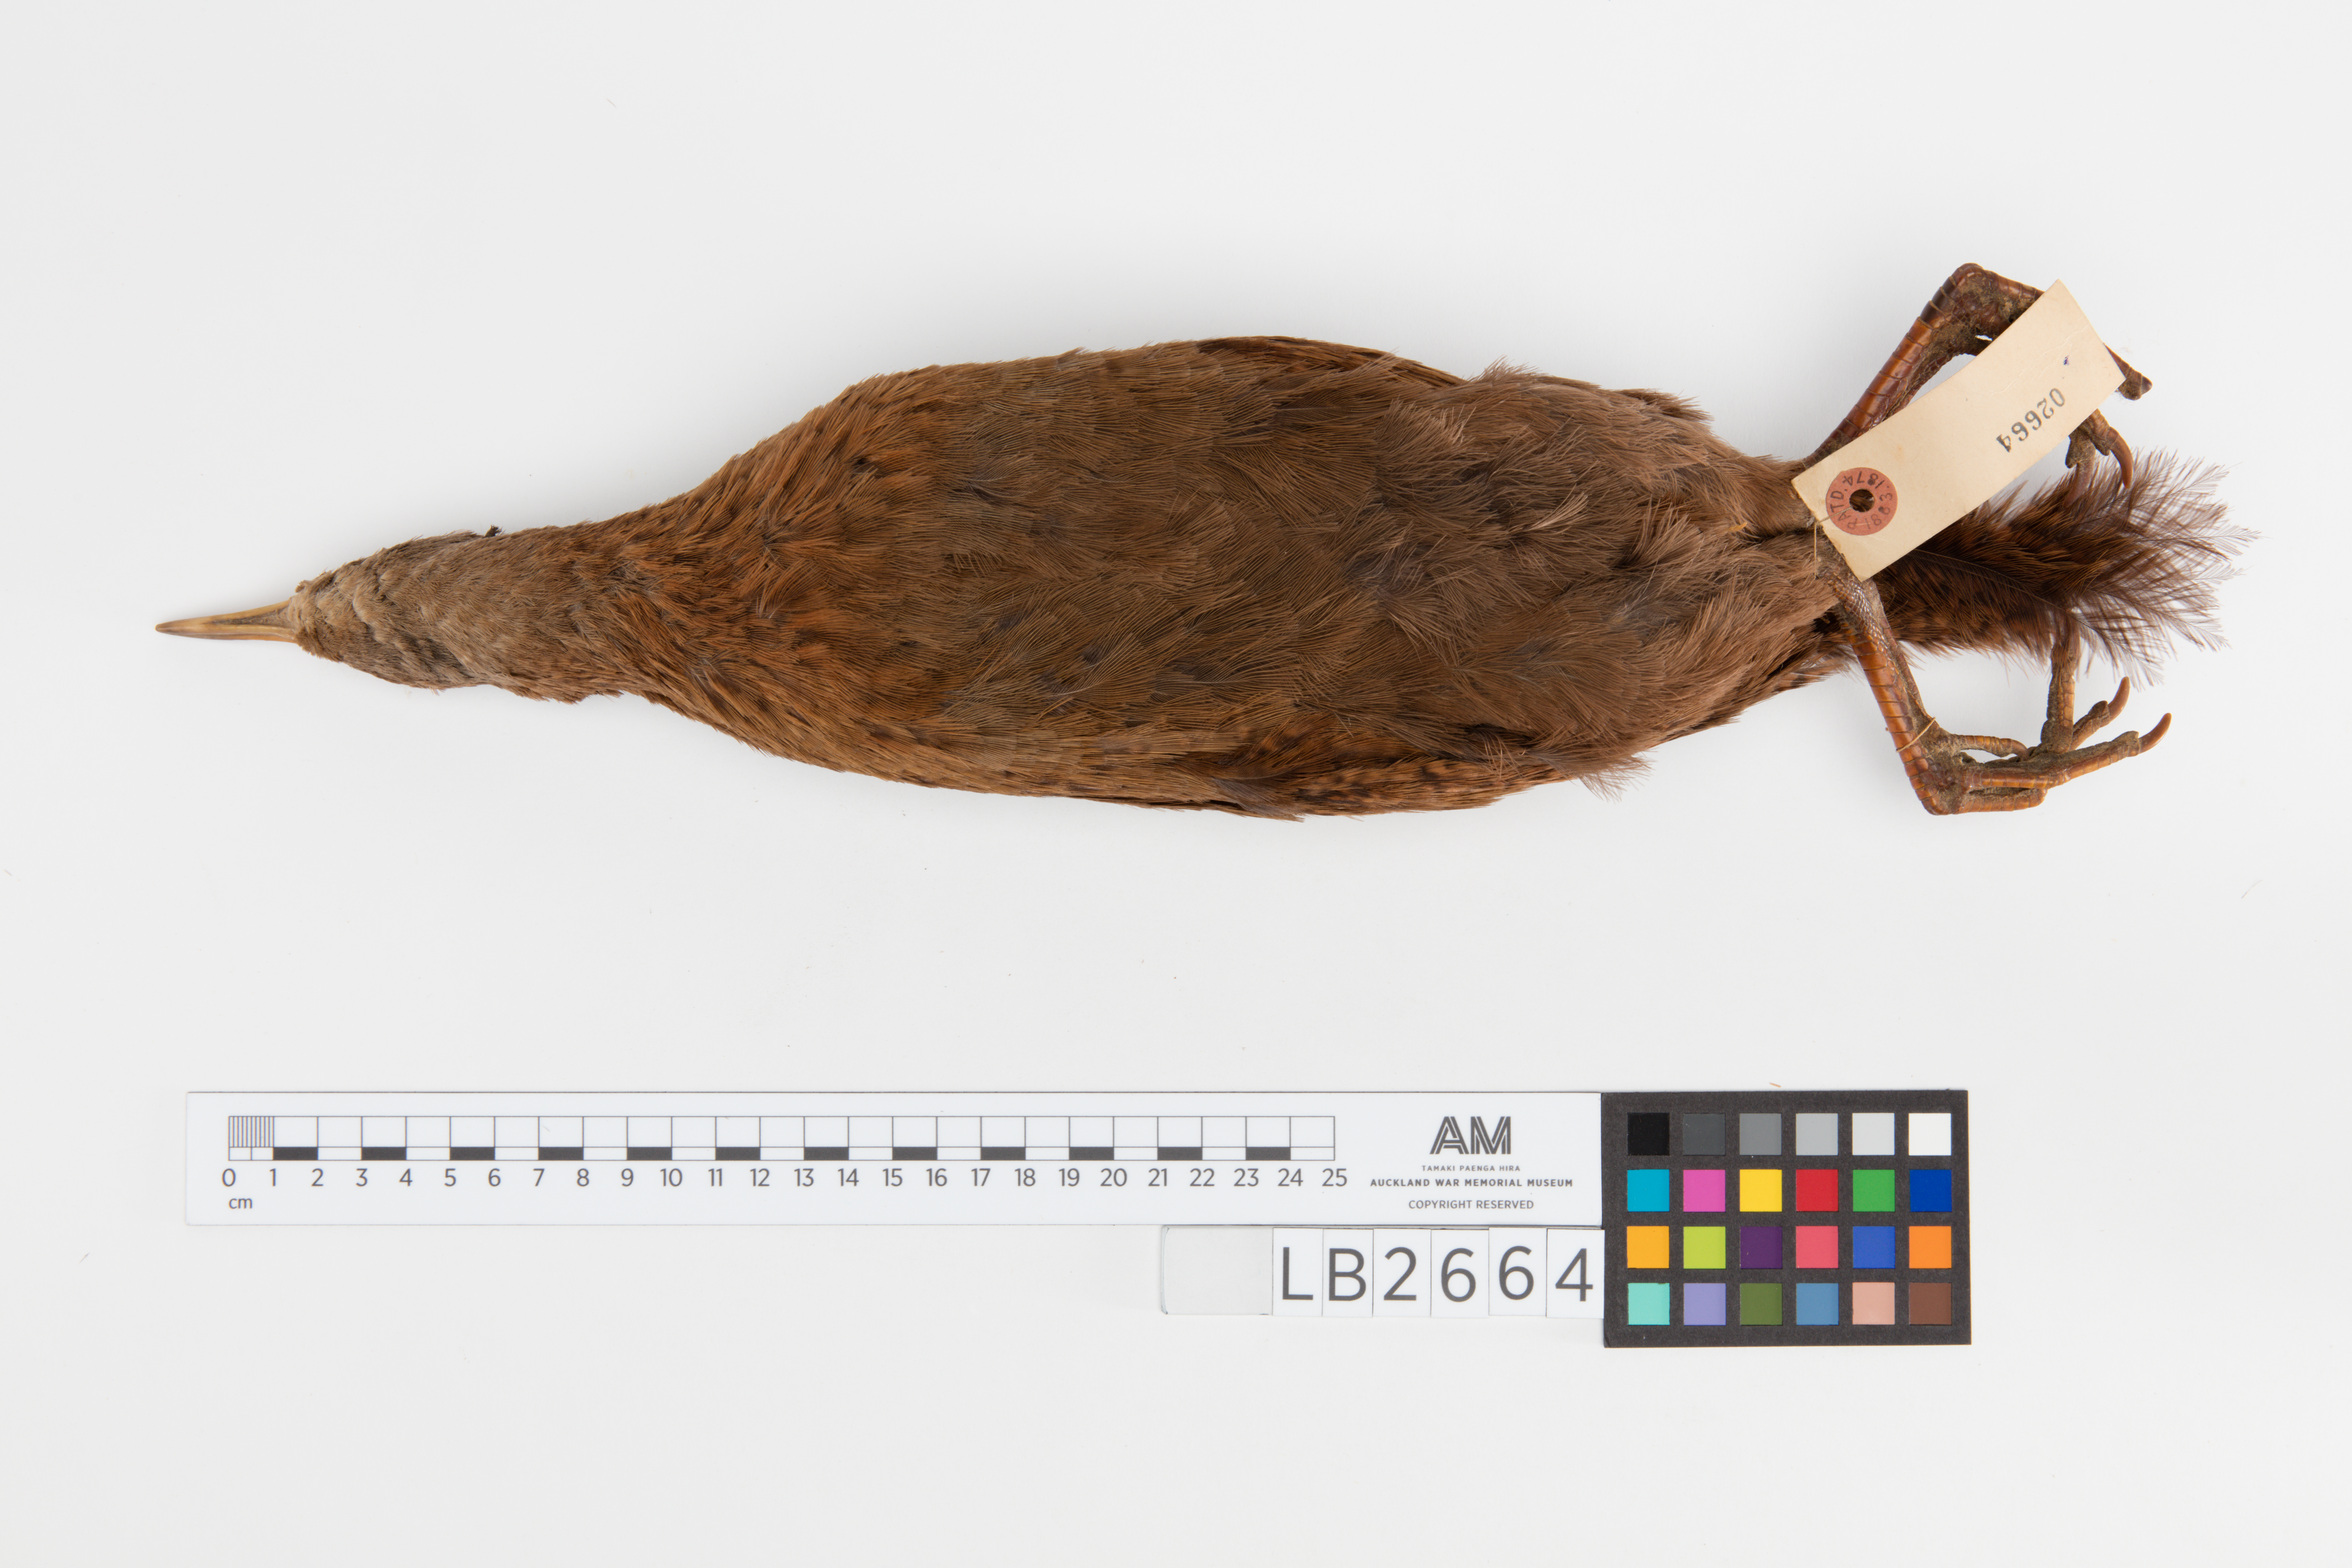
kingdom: Animalia
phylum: Chordata
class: Aves
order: Gruiformes
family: Rallidae
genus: Gallirallus
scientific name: Gallirallus australis
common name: Weka
